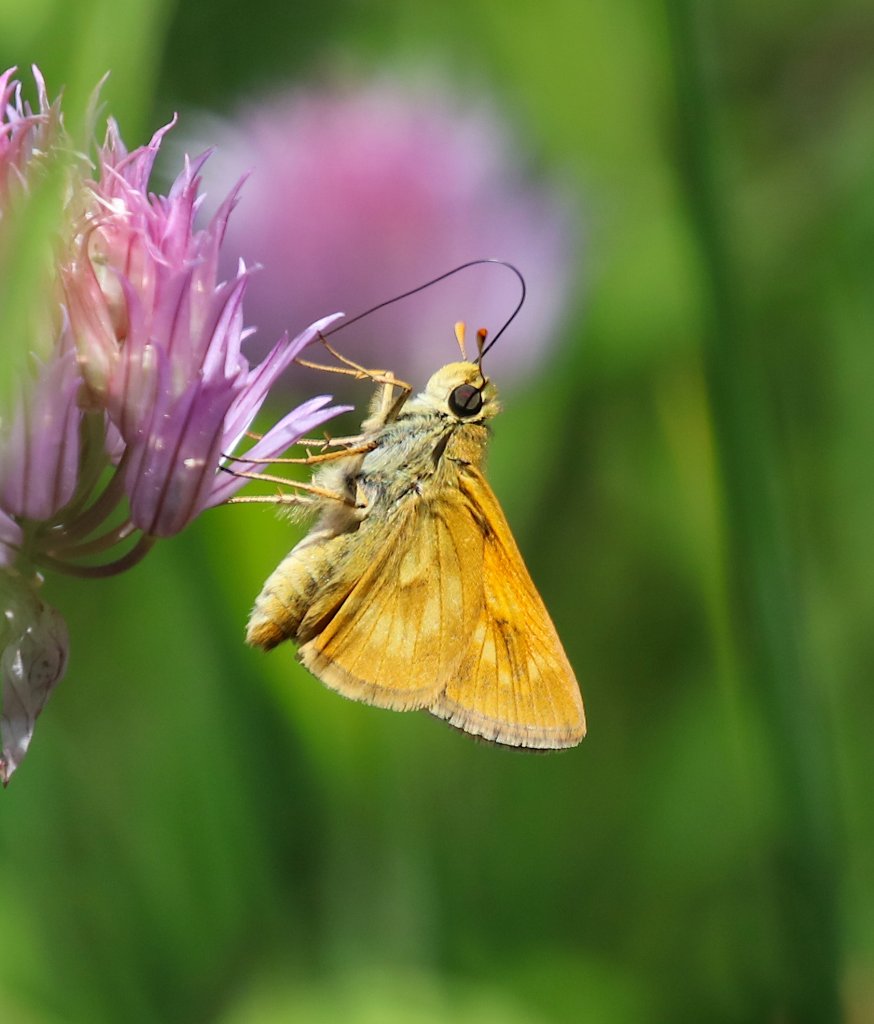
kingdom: Animalia
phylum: Arthropoda
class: Insecta
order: Lepidoptera
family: Hesperiidae
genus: Hesperia
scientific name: Hesperia sassacus
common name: Sassacus Skipper
